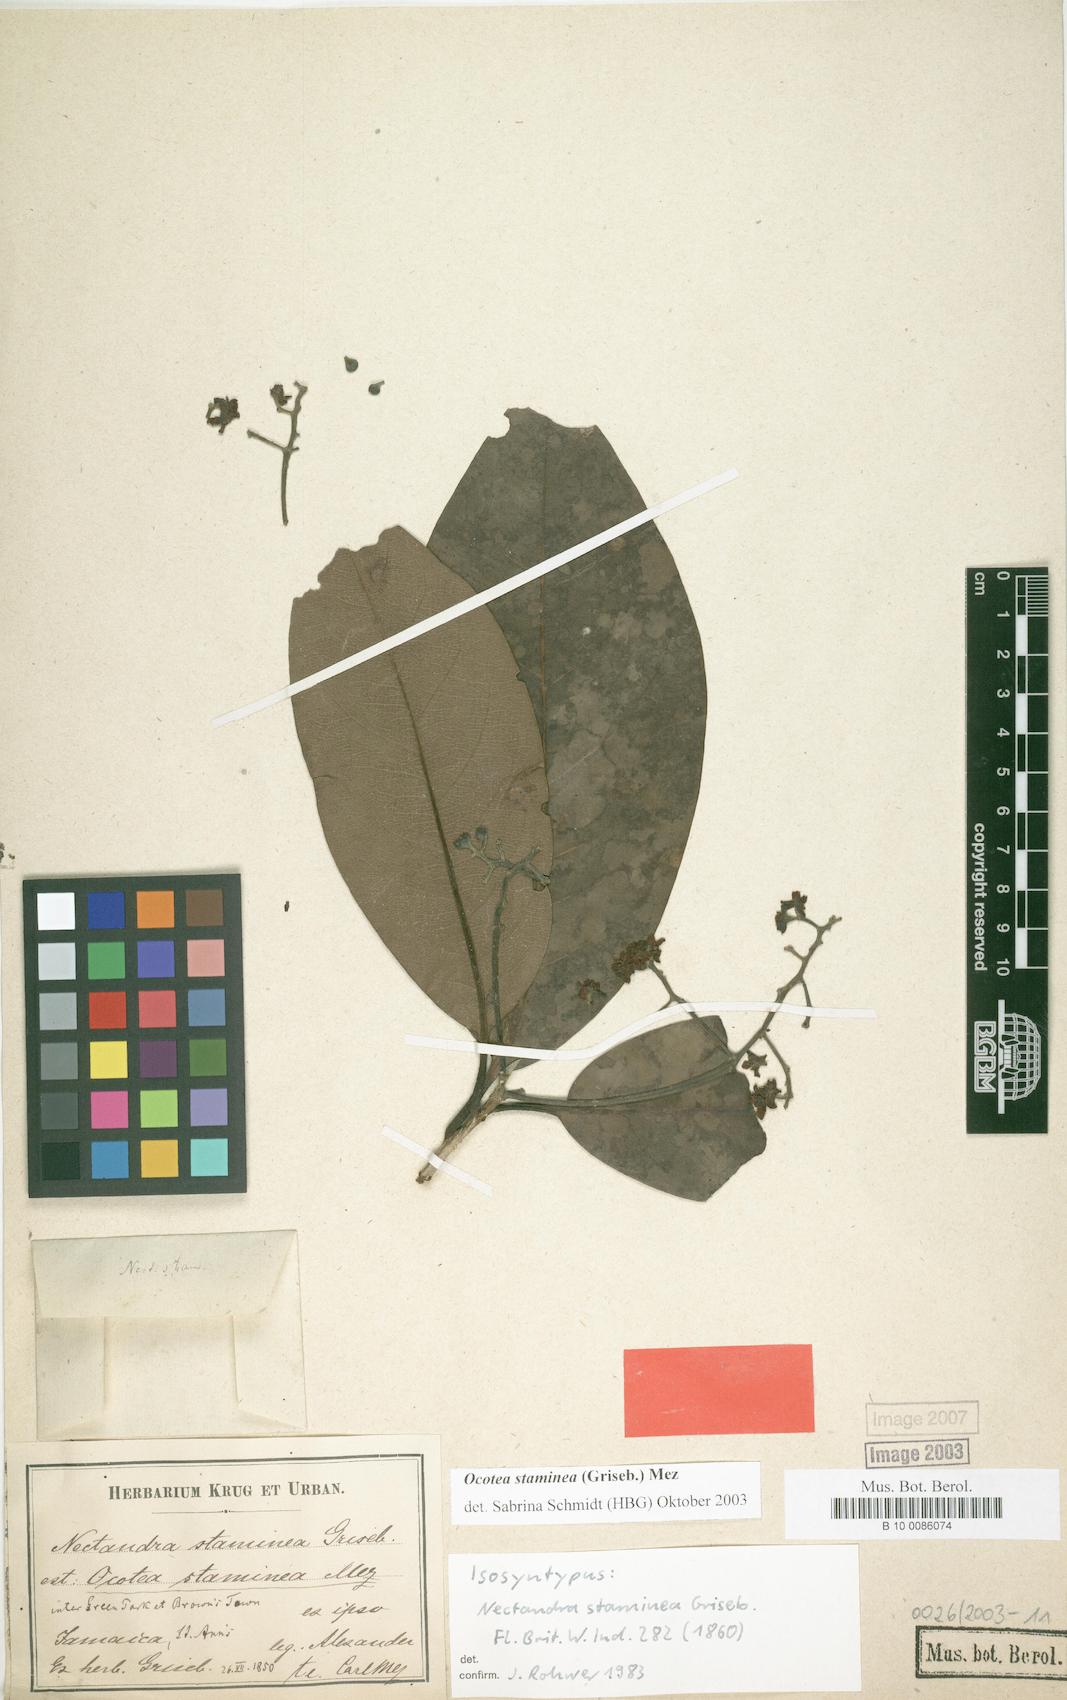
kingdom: Plantae
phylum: Tracheophyta
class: Magnoliopsida
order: Laurales
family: Lauraceae
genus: Mespilodaphne
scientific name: Mespilodaphne staminea
